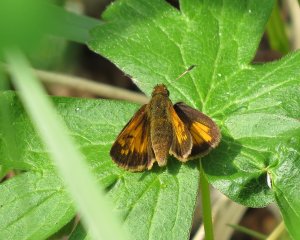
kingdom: Animalia
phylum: Arthropoda
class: Insecta
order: Lepidoptera
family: Hesperiidae
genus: Lon
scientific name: Lon hobomok
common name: Hobomok Skipper
